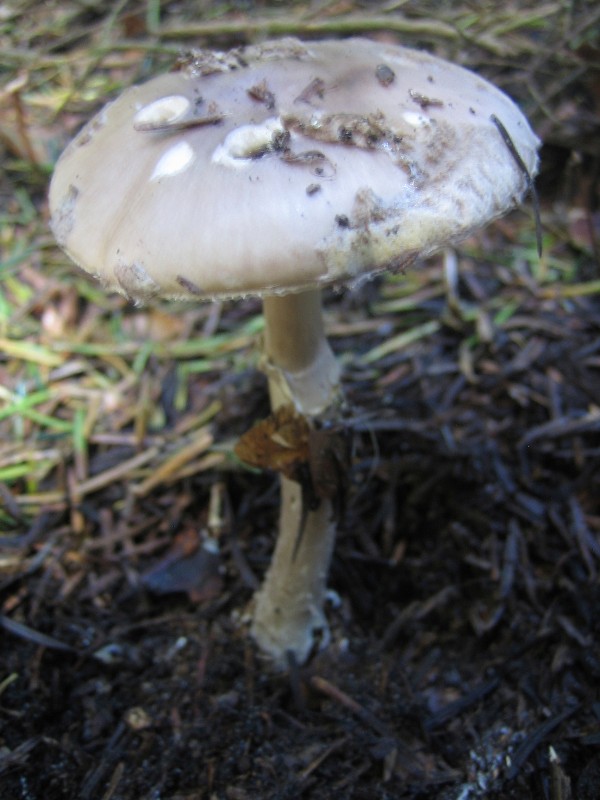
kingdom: Fungi
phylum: Basidiomycota
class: Agaricomycetes
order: Agaricales
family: Amanitaceae
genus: Amanita
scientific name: Amanita
